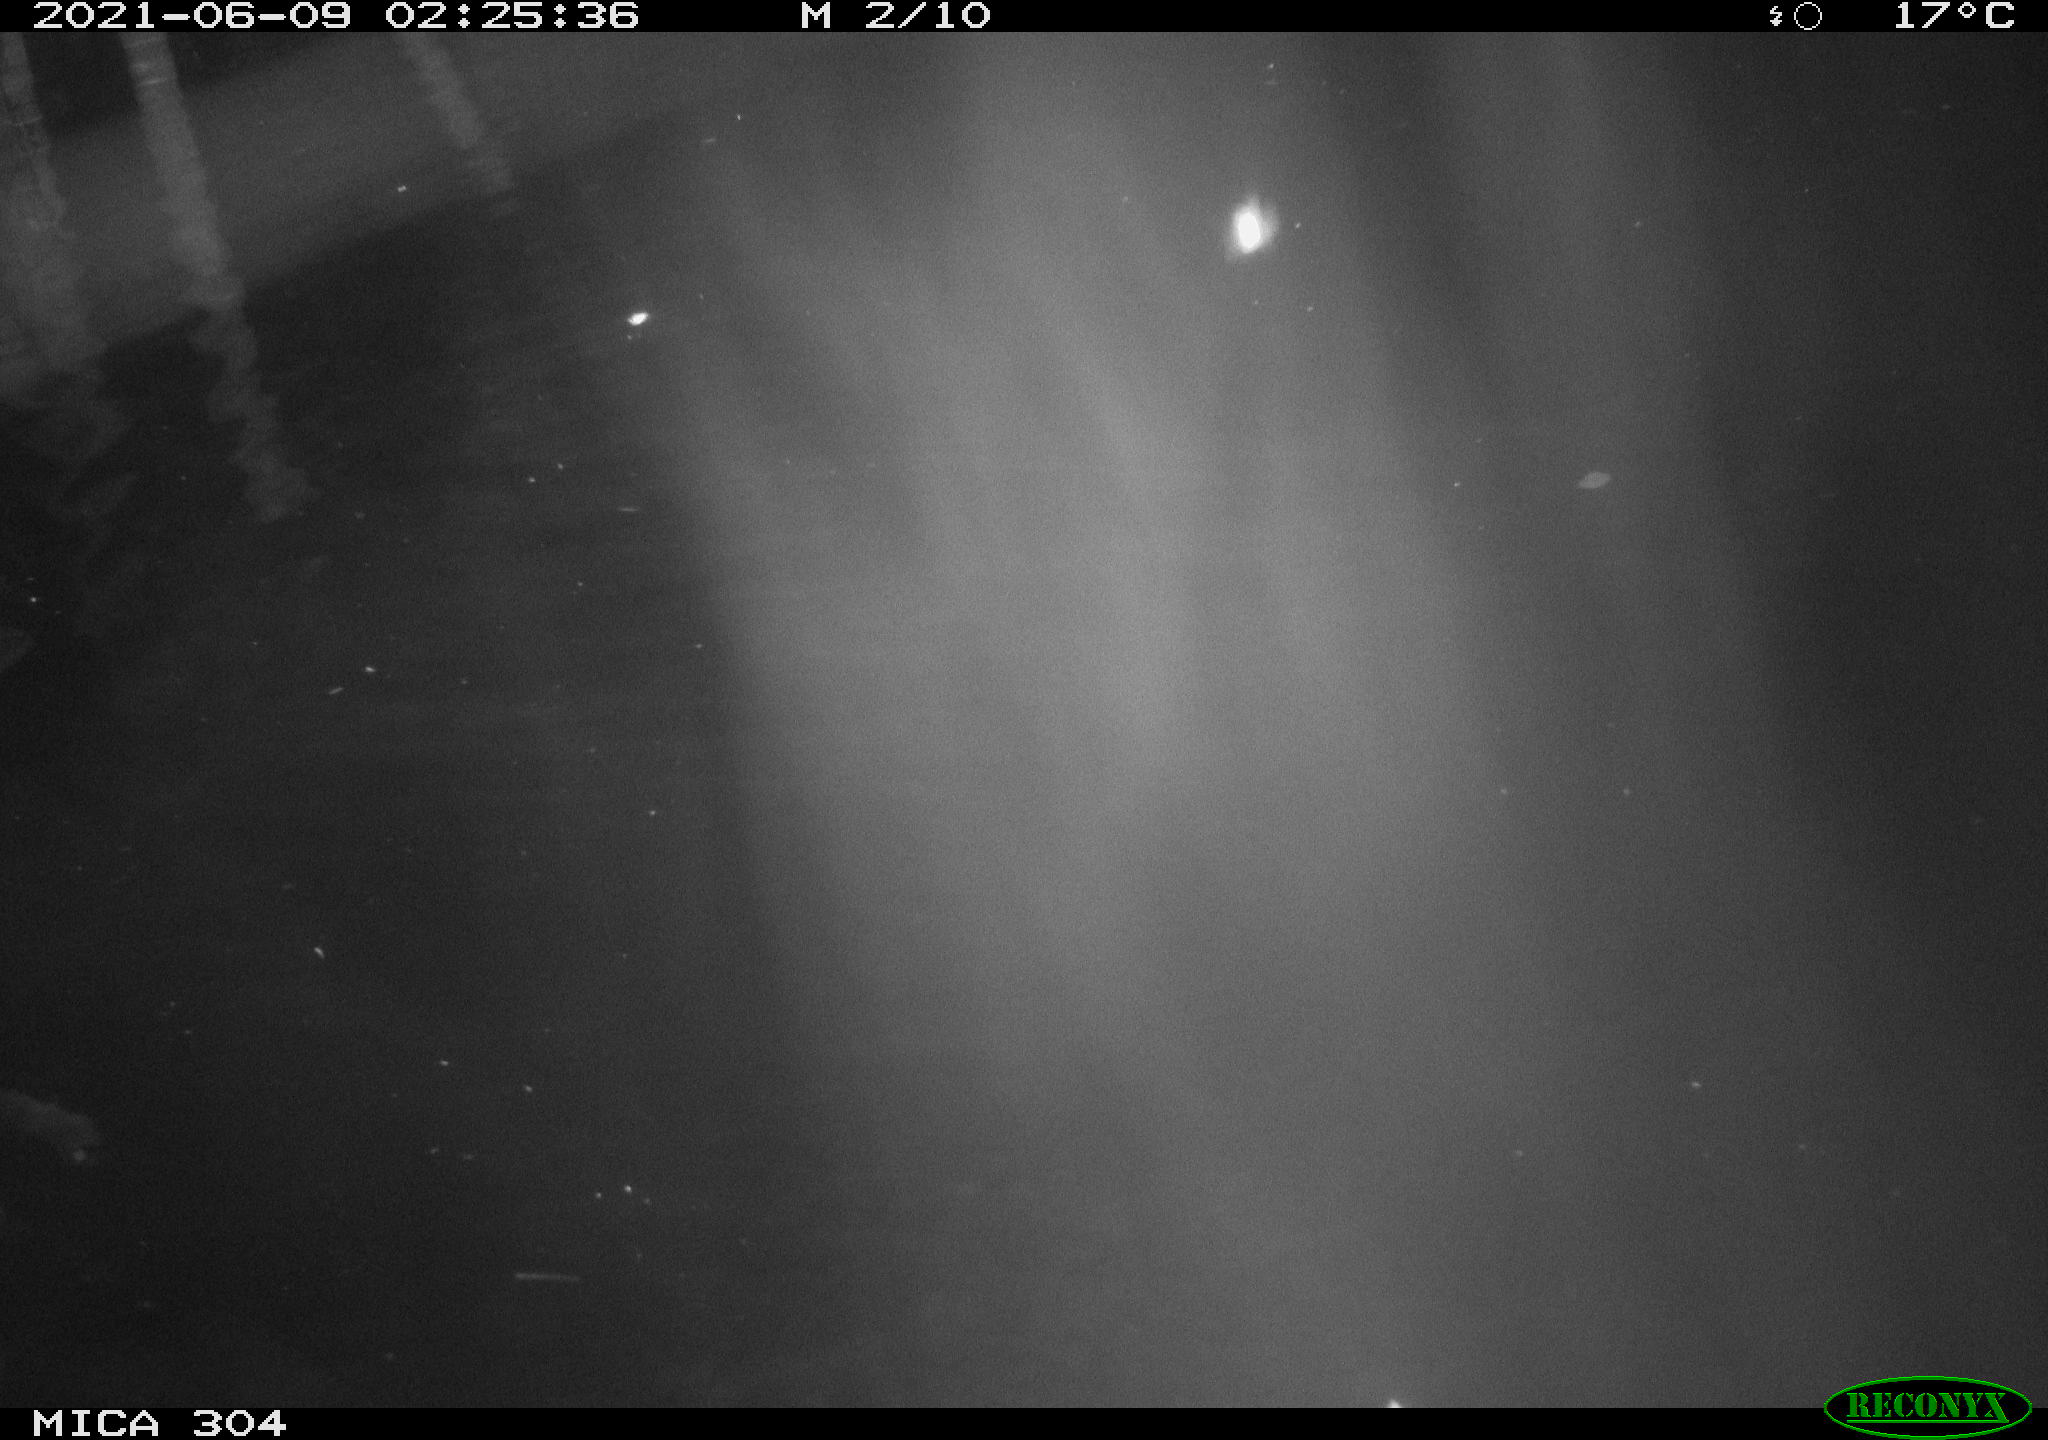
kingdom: Animalia
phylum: Chordata
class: Mammalia
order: Rodentia
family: Cricetidae
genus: Ondatra
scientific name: Ondatra zibethicus
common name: Muskrat
